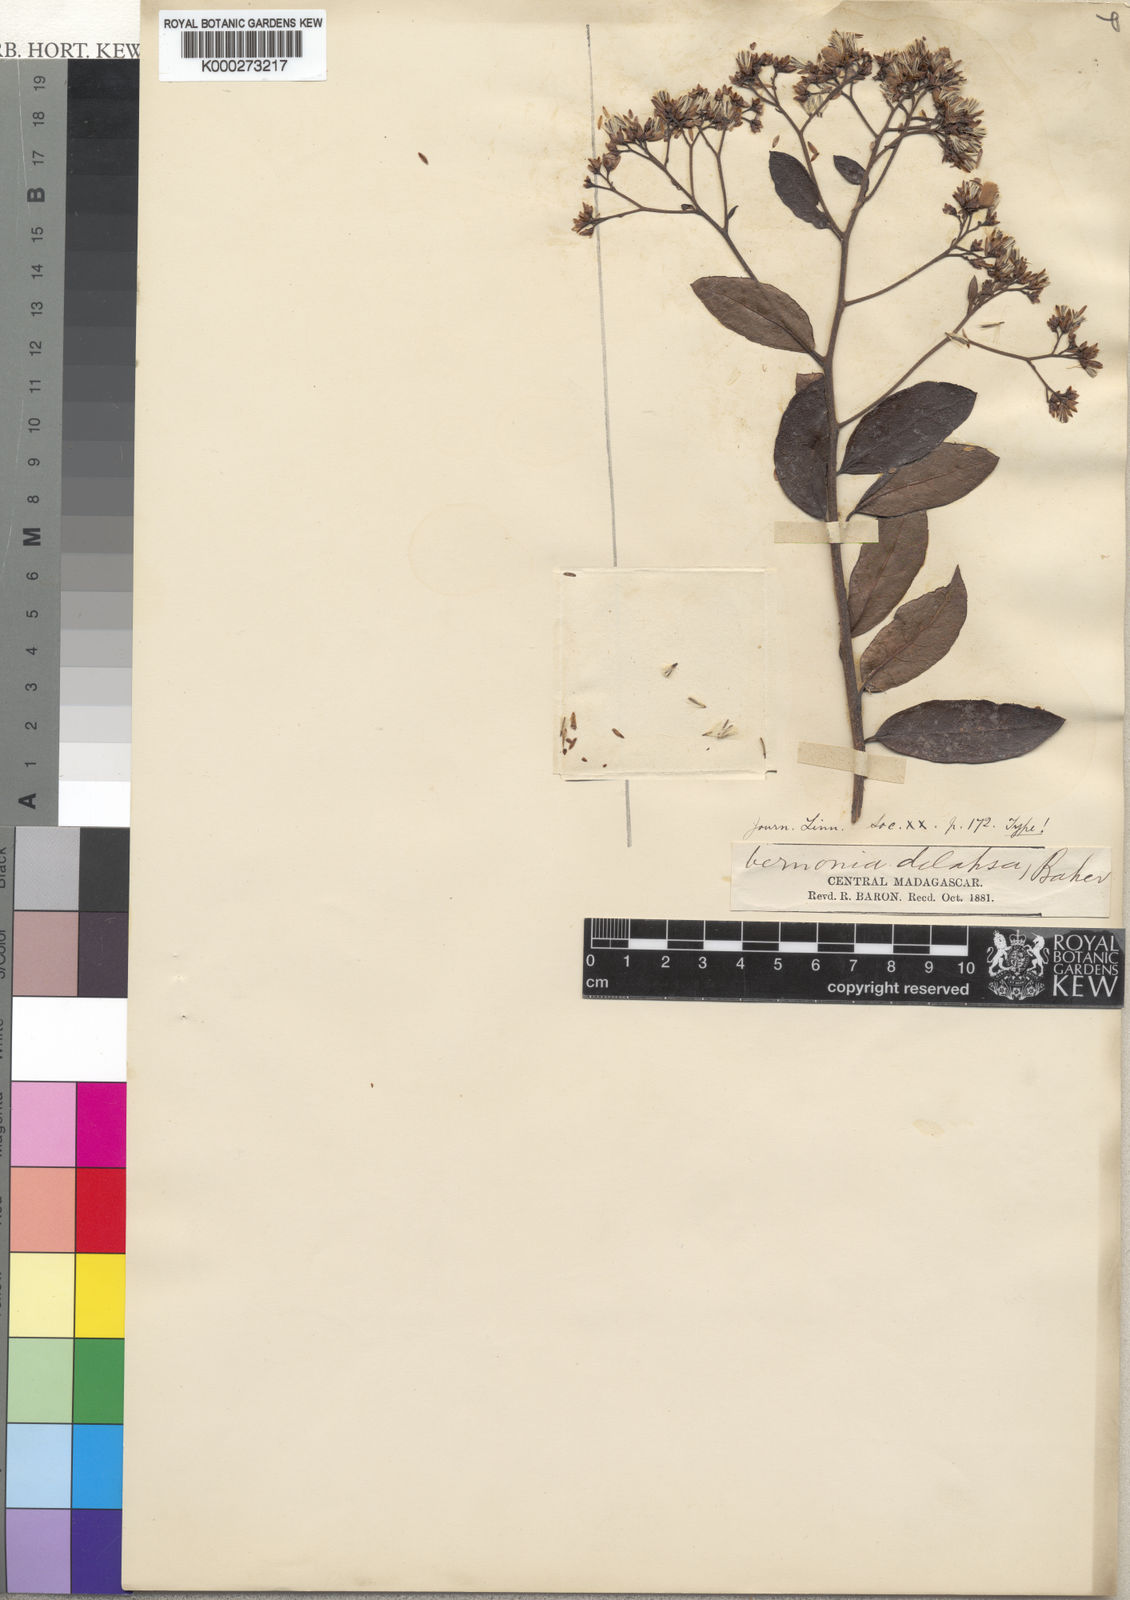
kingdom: Plantae
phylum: Tracheophyta
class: Magnoliopsida
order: Asterales
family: Asteraceae
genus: Vernonia
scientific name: Vernonia delapsa
